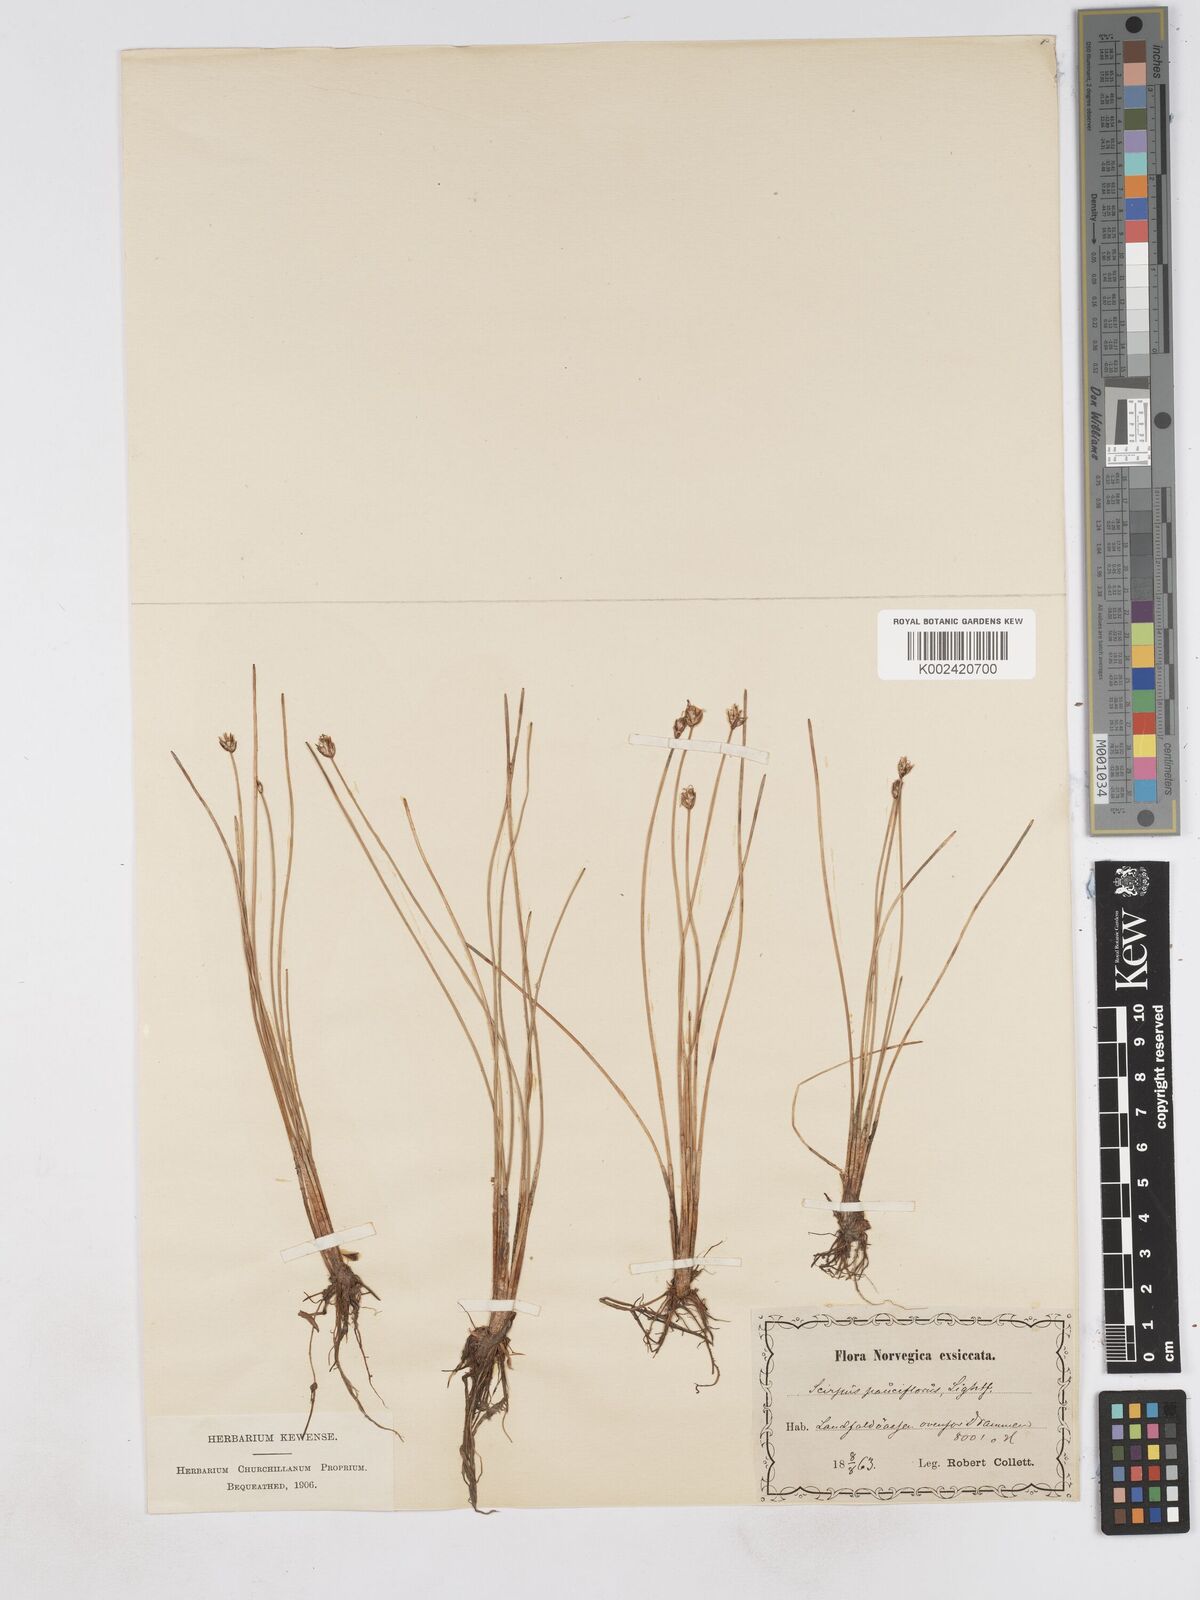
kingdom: Plantae
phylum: Tracheophyta
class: Liliopsida
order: Poales
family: Cyperaceae
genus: Eleocharis
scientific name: Eleocharis quinqueflora
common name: Few-flowered spike-rush
